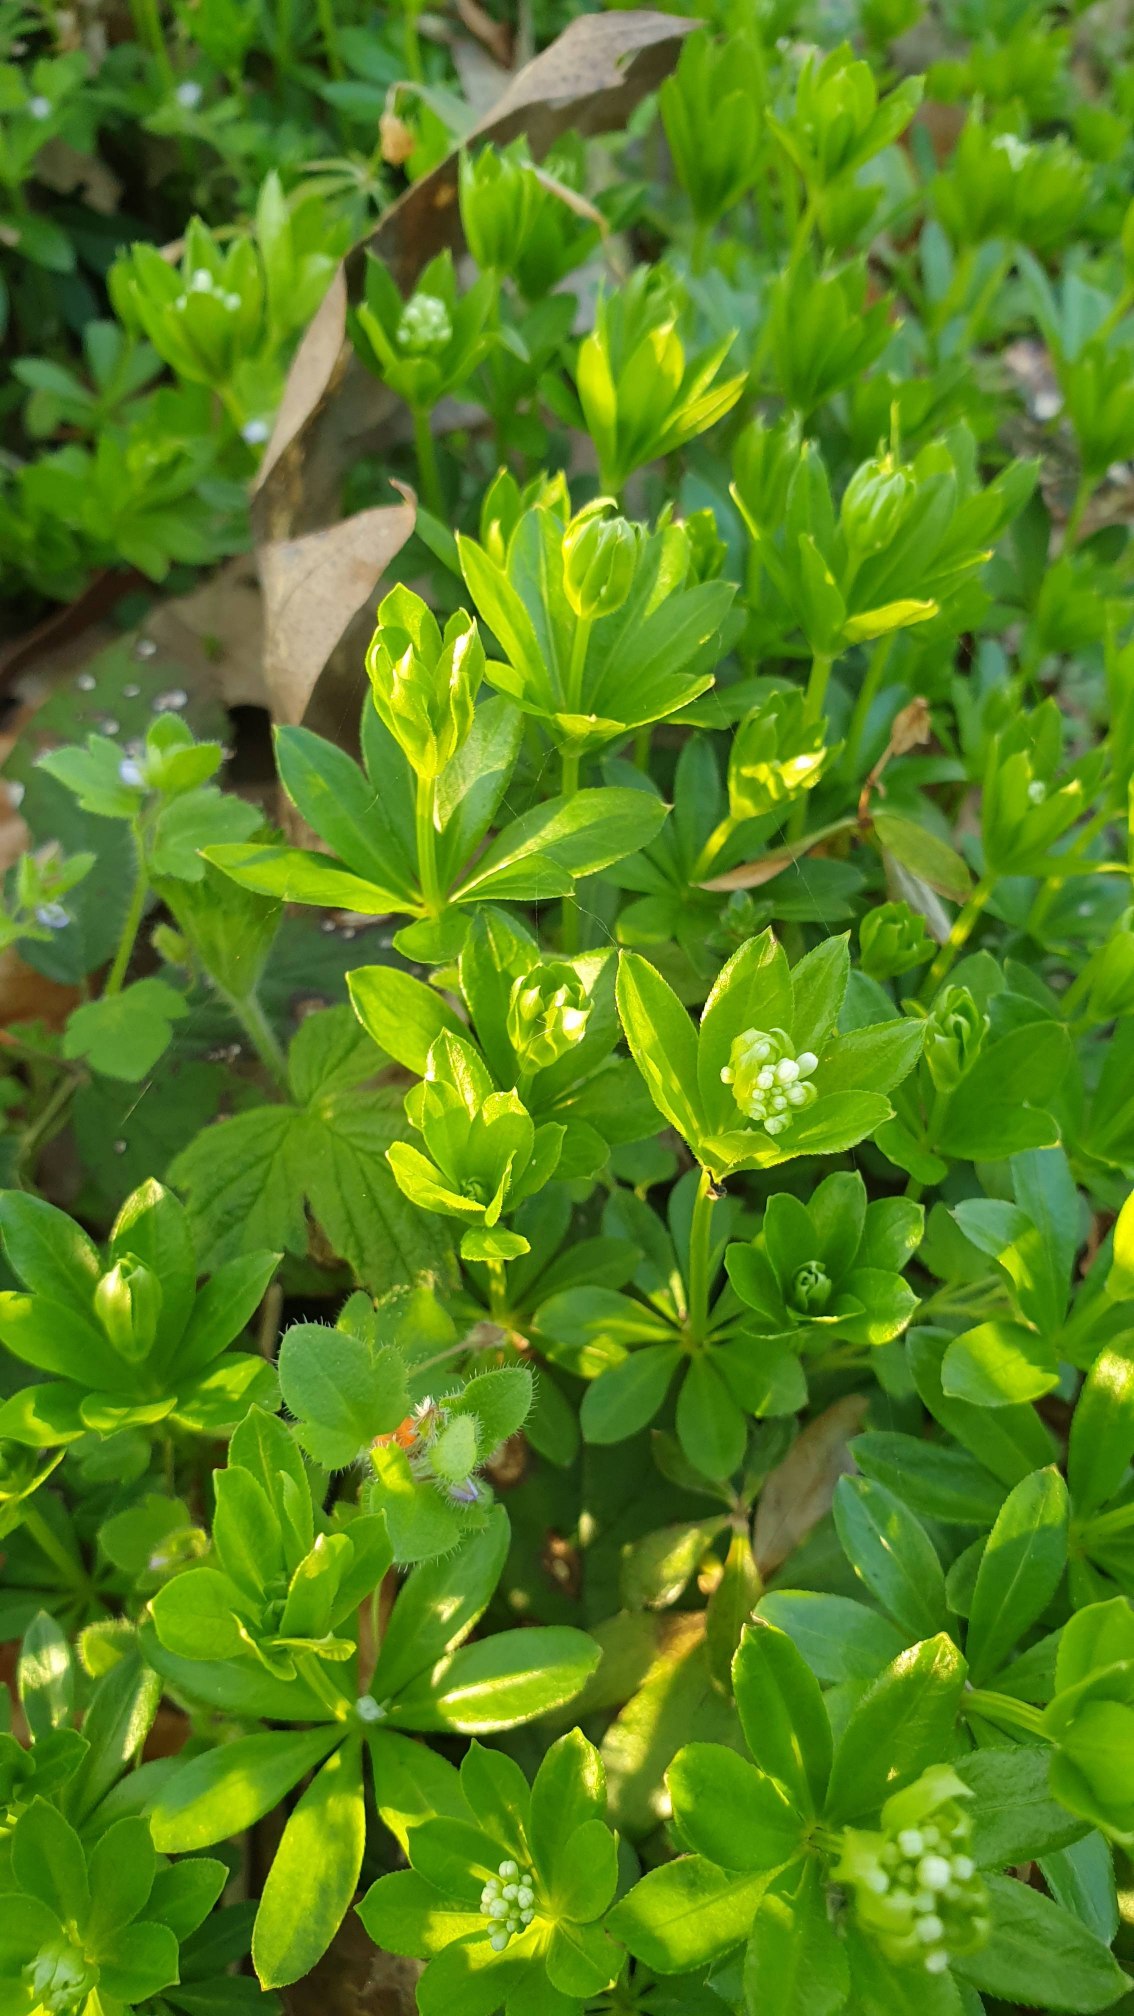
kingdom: Plantae
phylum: Tracheophyta
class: Magnoliopsida
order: Gentianales
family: Rubiaceae
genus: Galium
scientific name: Galium odoratum
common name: Skovmærke
